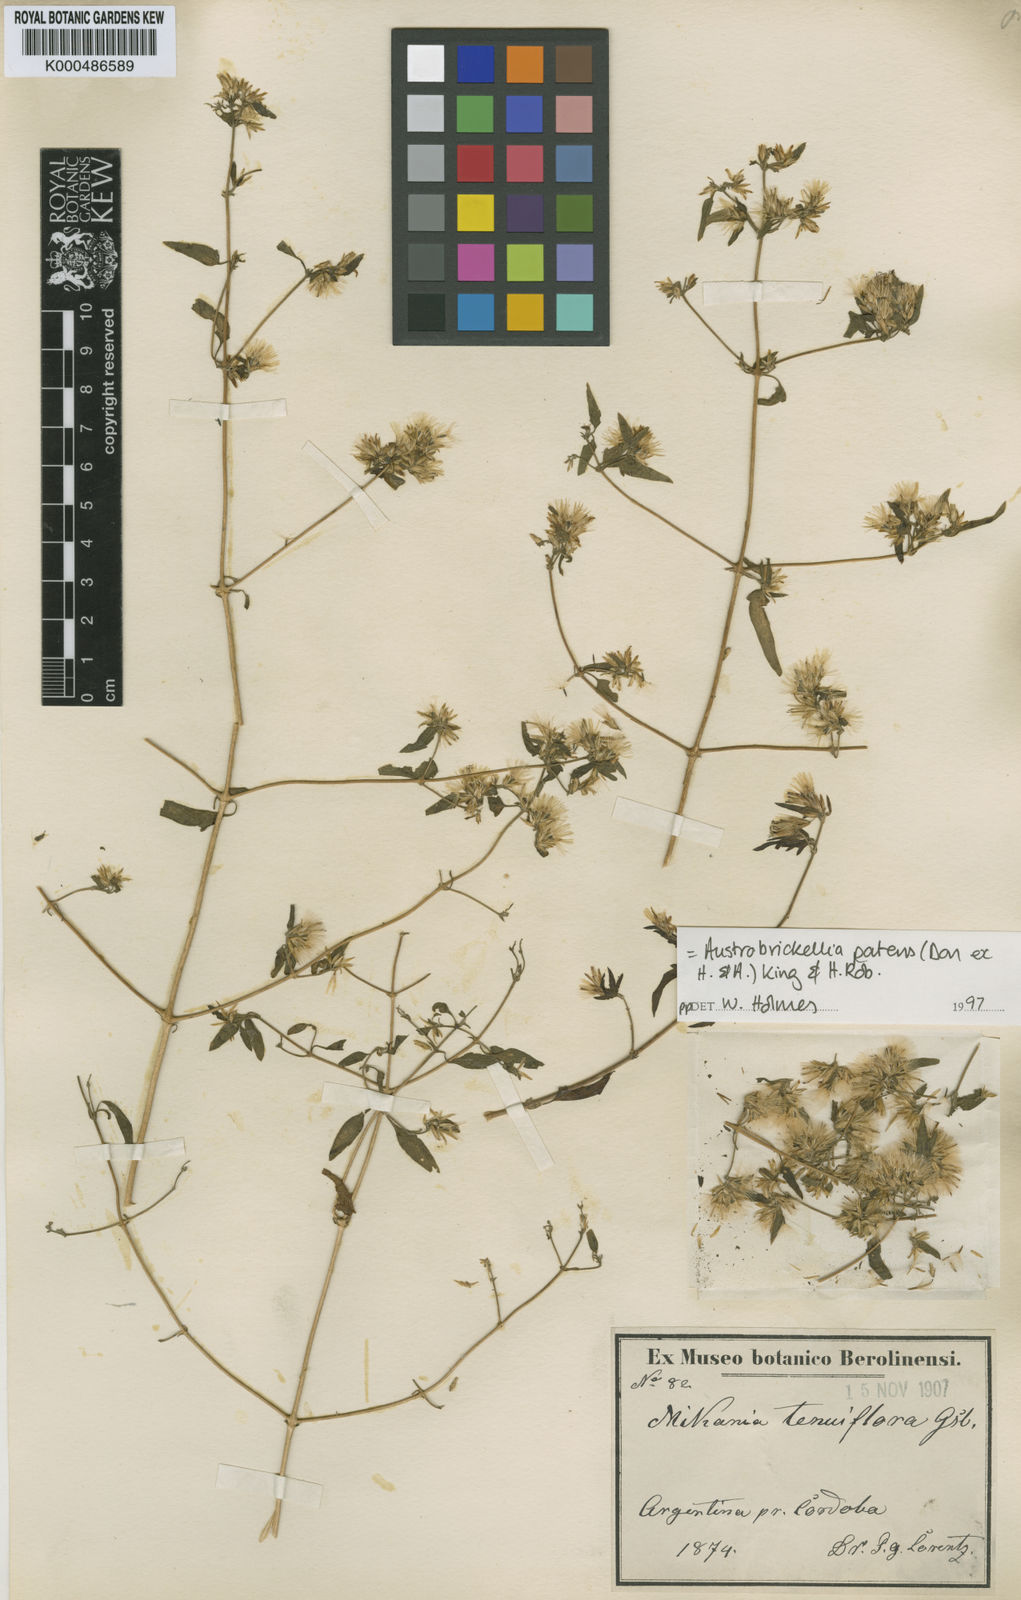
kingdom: Plantae
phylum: Tracheophyta
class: Magnoliopsida
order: Asterales
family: Asteraceae
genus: Austrobrickellia
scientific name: Austrobrickellia patens
